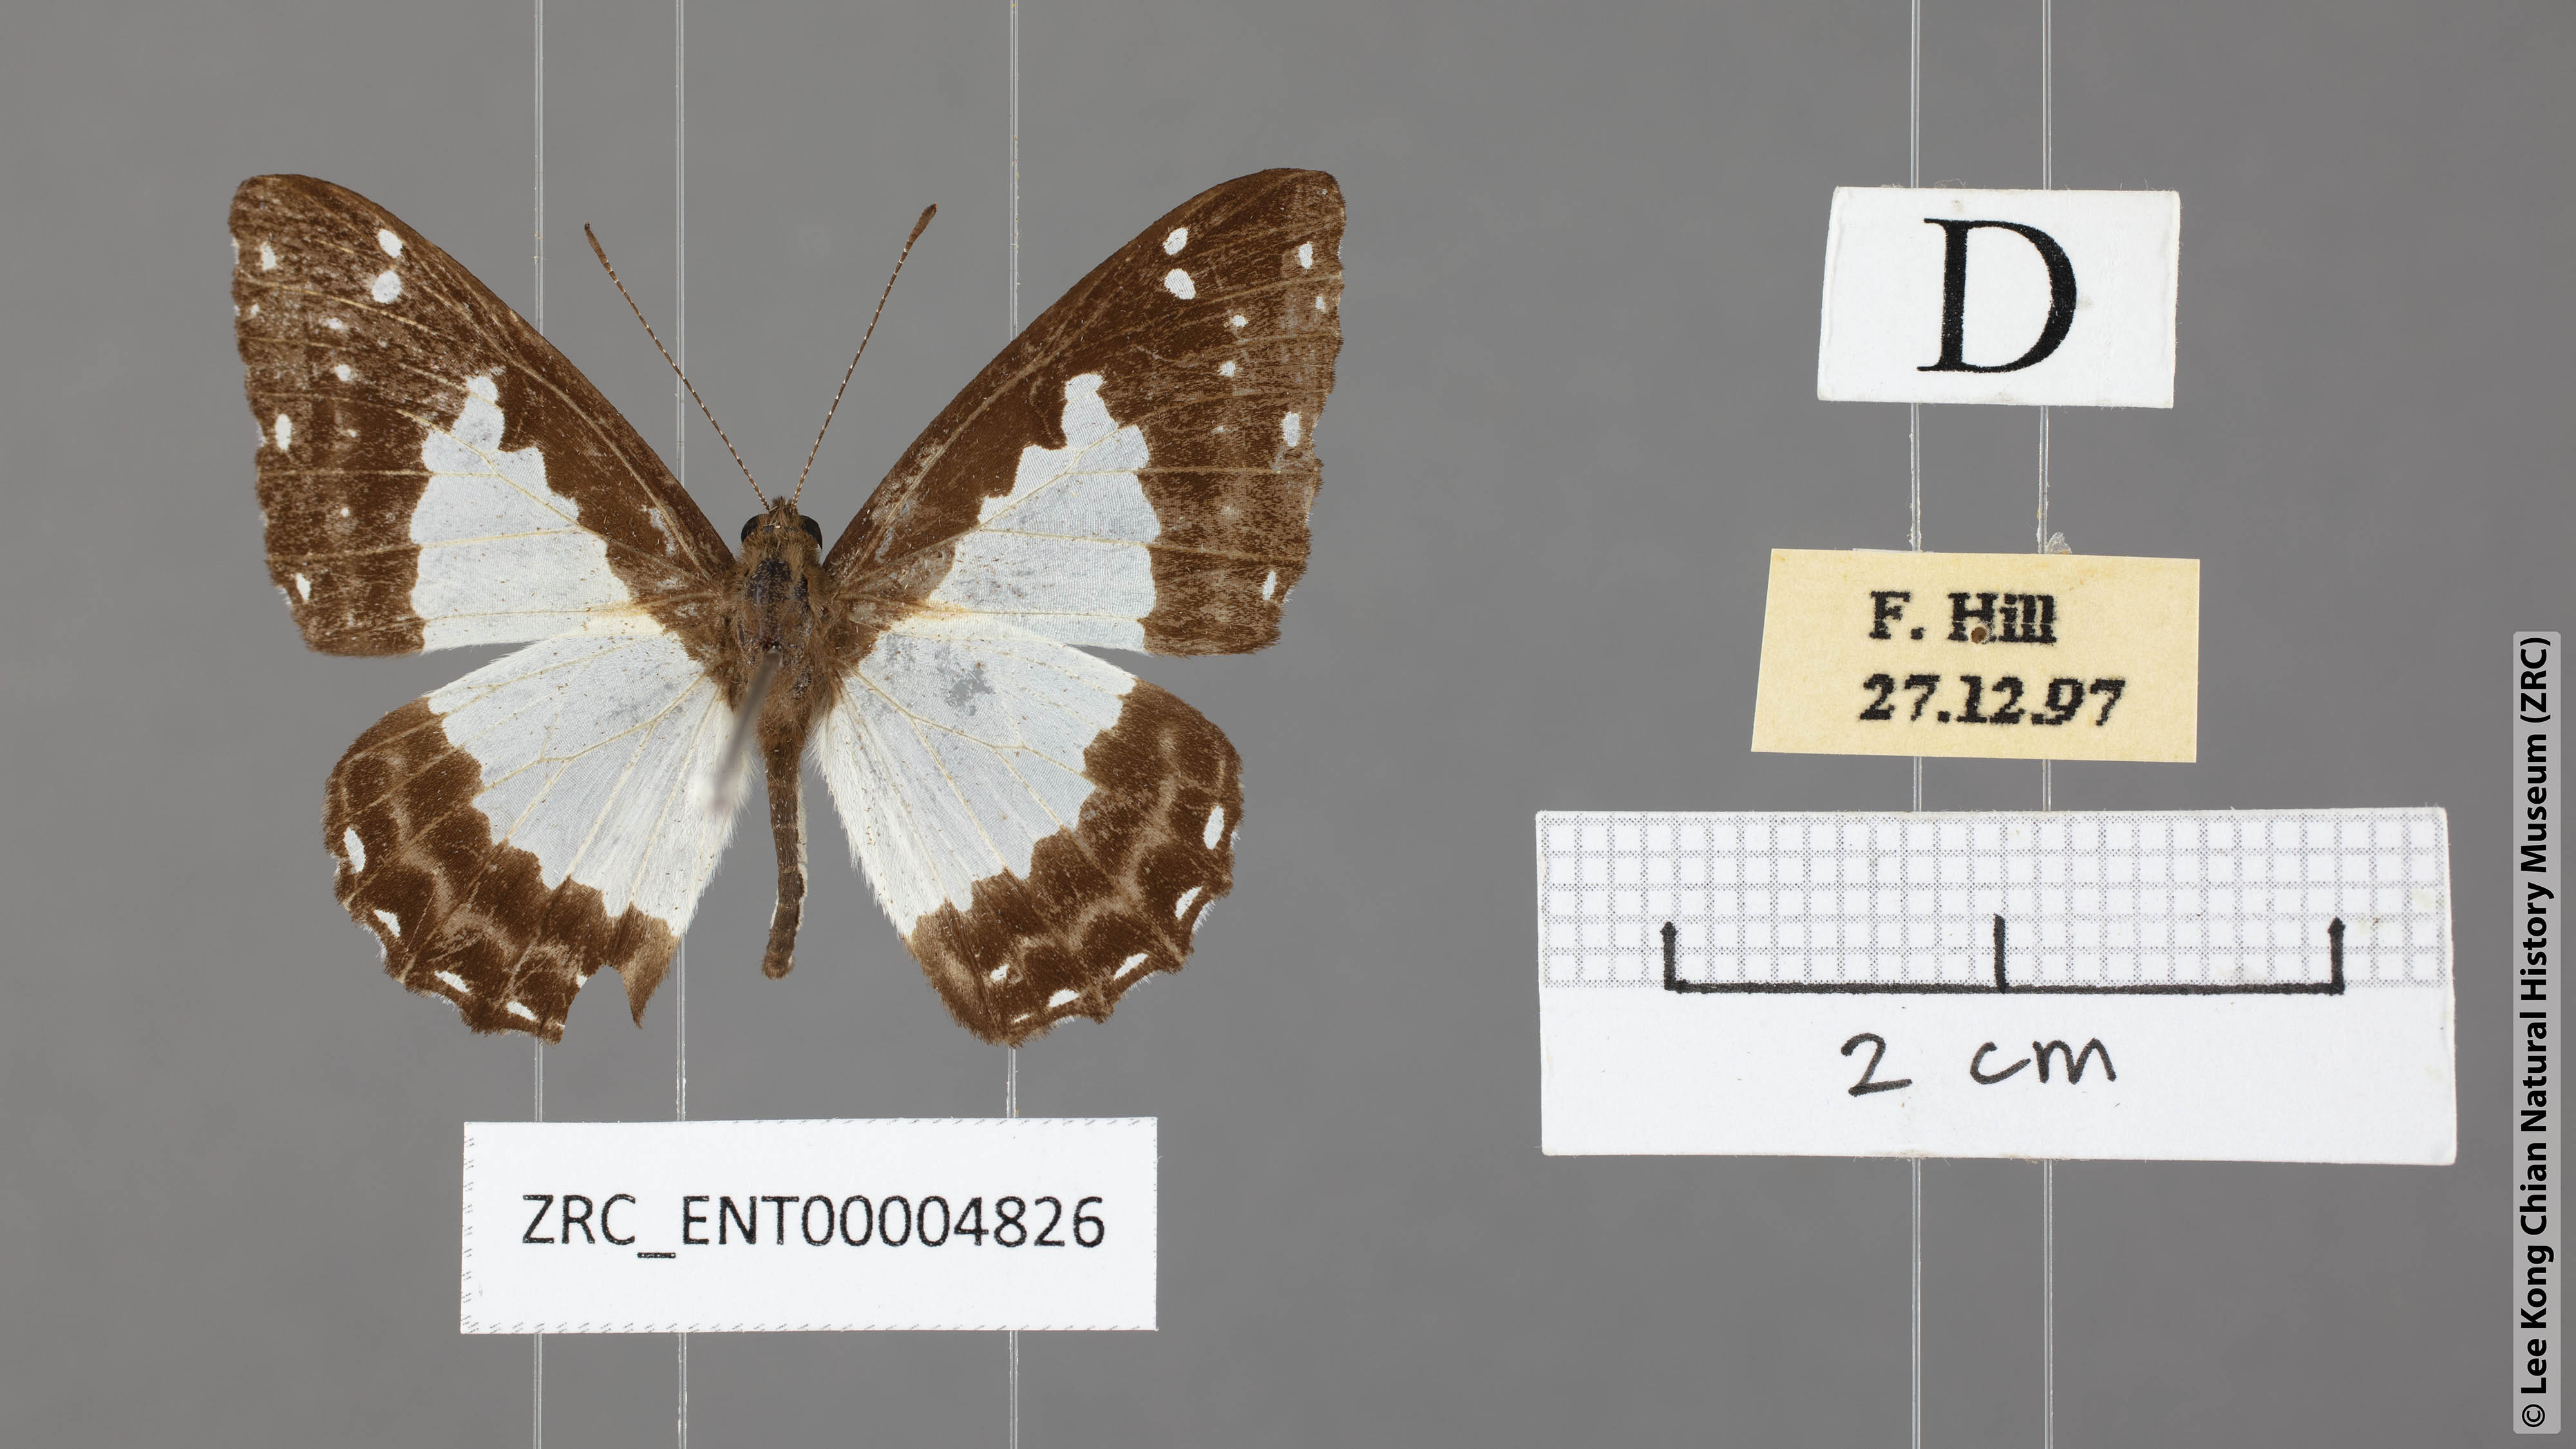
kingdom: Animalia
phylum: Arthropoda
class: Insecta
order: Lepidoptera
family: Riodinidae
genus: Stiboges
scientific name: Stiboges nymphidia
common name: Columbine
